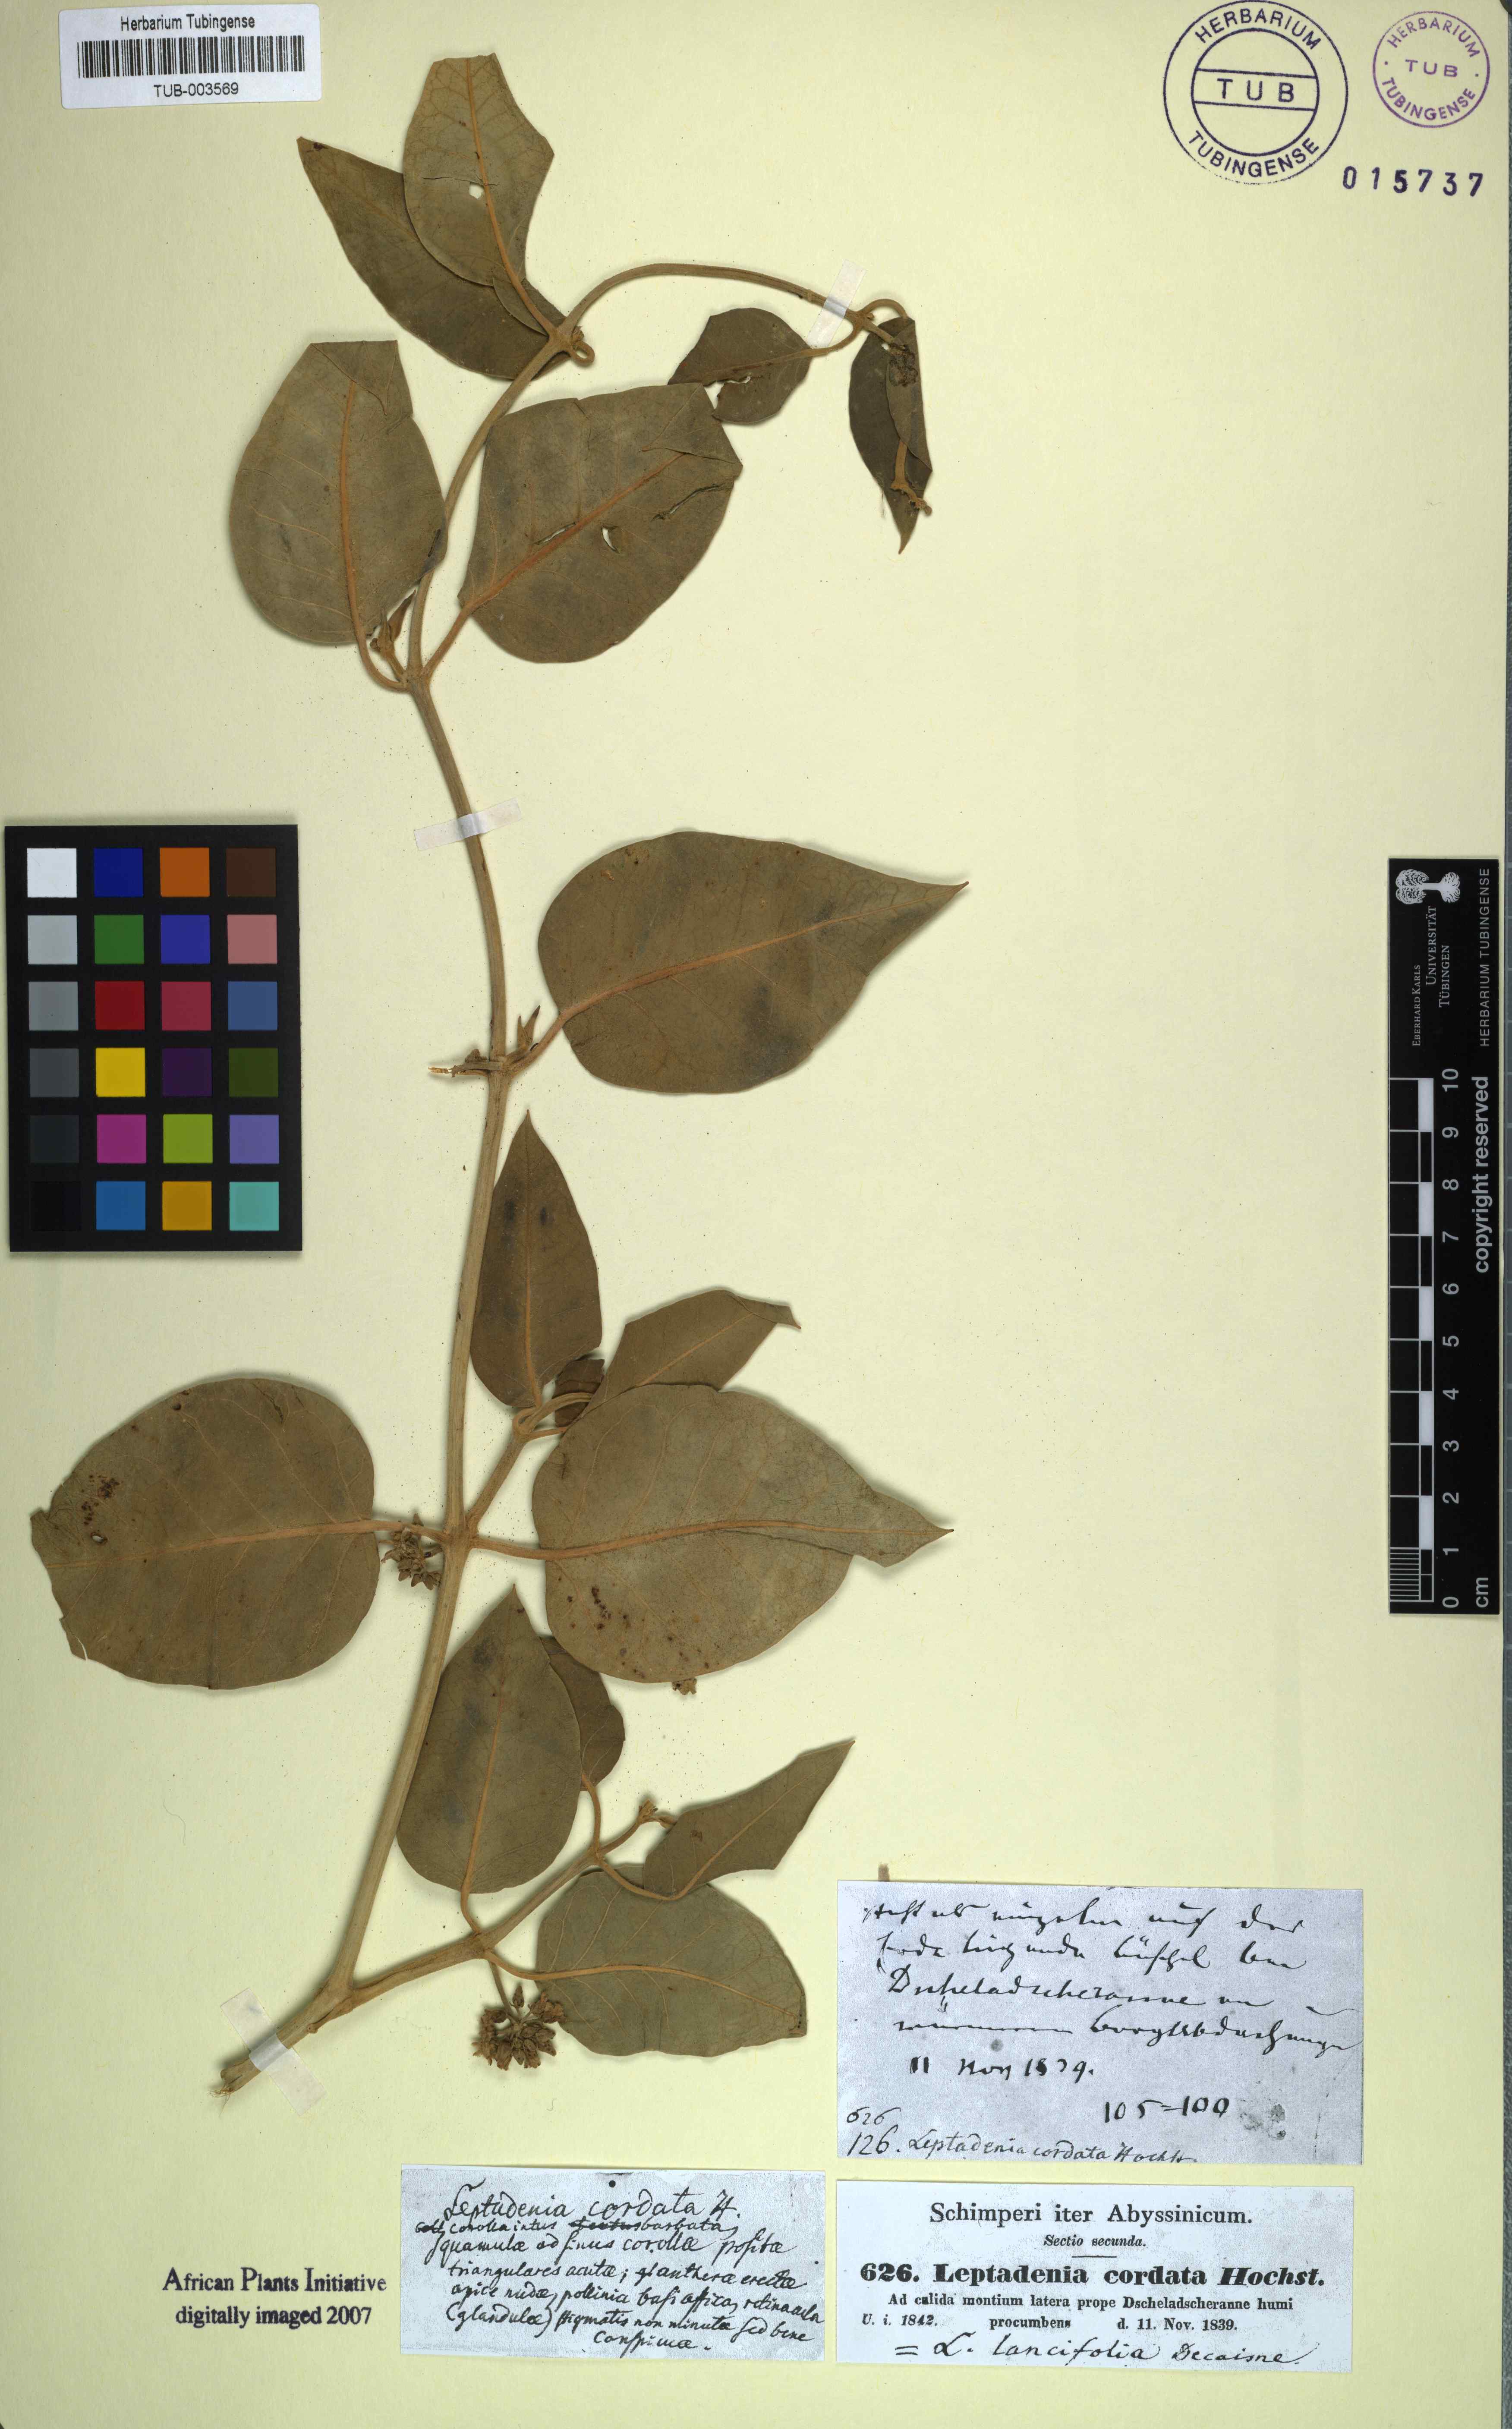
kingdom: Plantae
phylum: Tracheophyta
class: Magnoliopsida
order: Gentianales
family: Apocynaceae
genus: Leptadenia
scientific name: Leptadenia lanceolata
